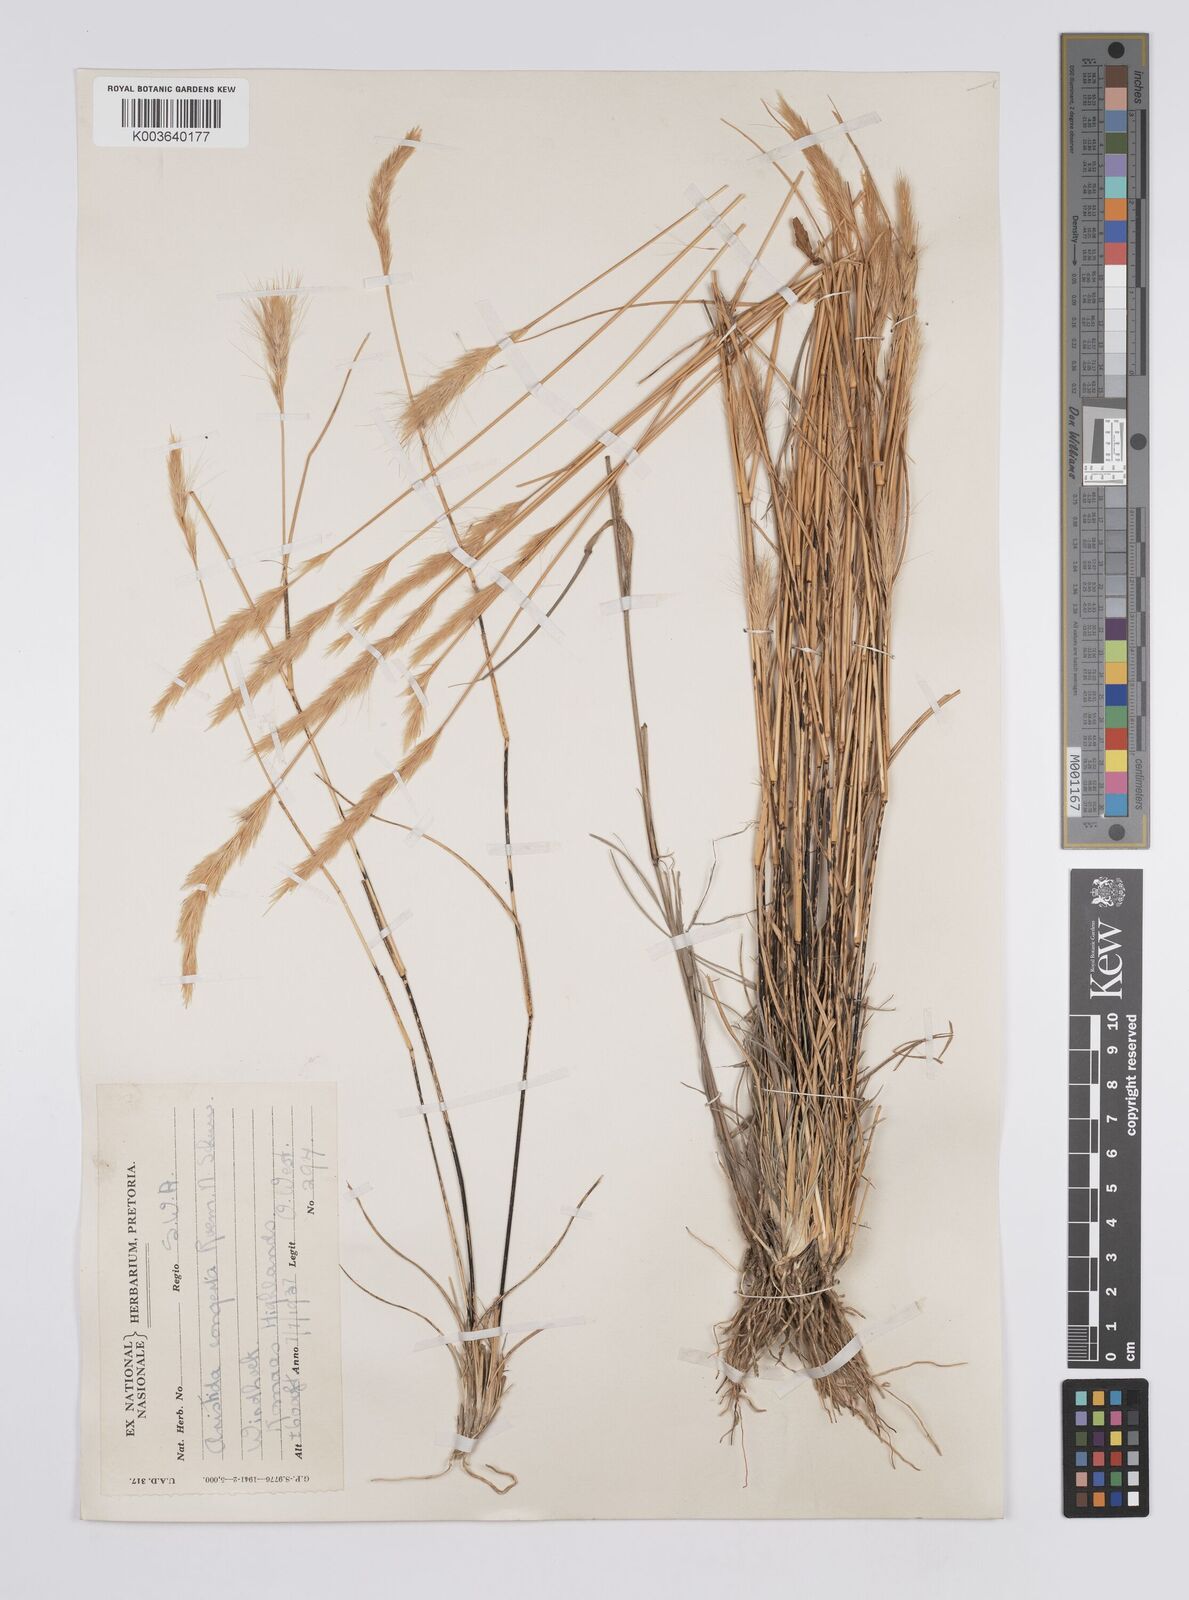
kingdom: Plantae
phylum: Tracheophyta
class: Liliopsida
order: Poales
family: Poaceae
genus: Aristida
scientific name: Aristida congesta
